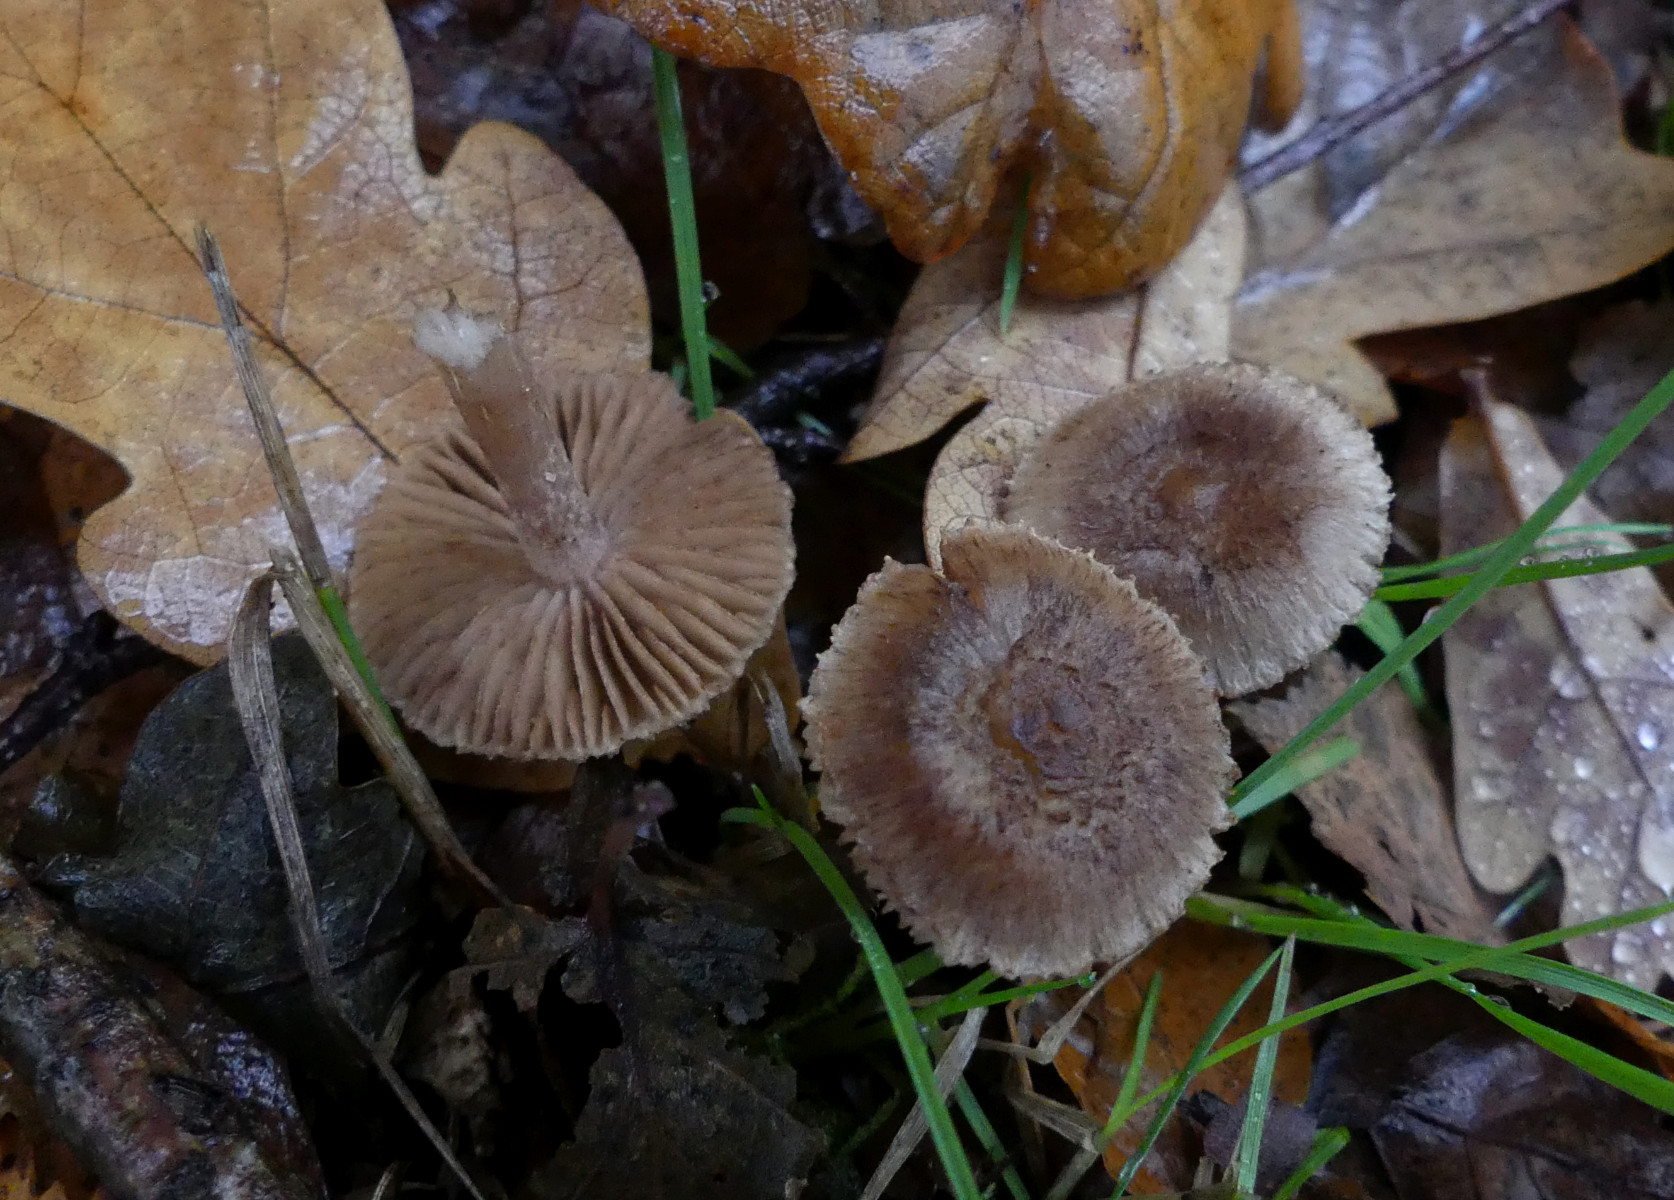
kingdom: Fungi
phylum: Basidiomycota
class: Agaricomycetes
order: Agaricales
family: Inocybaceae
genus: Inocybe
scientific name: Inocybe cincinnata
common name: lillabladet trævlhat
